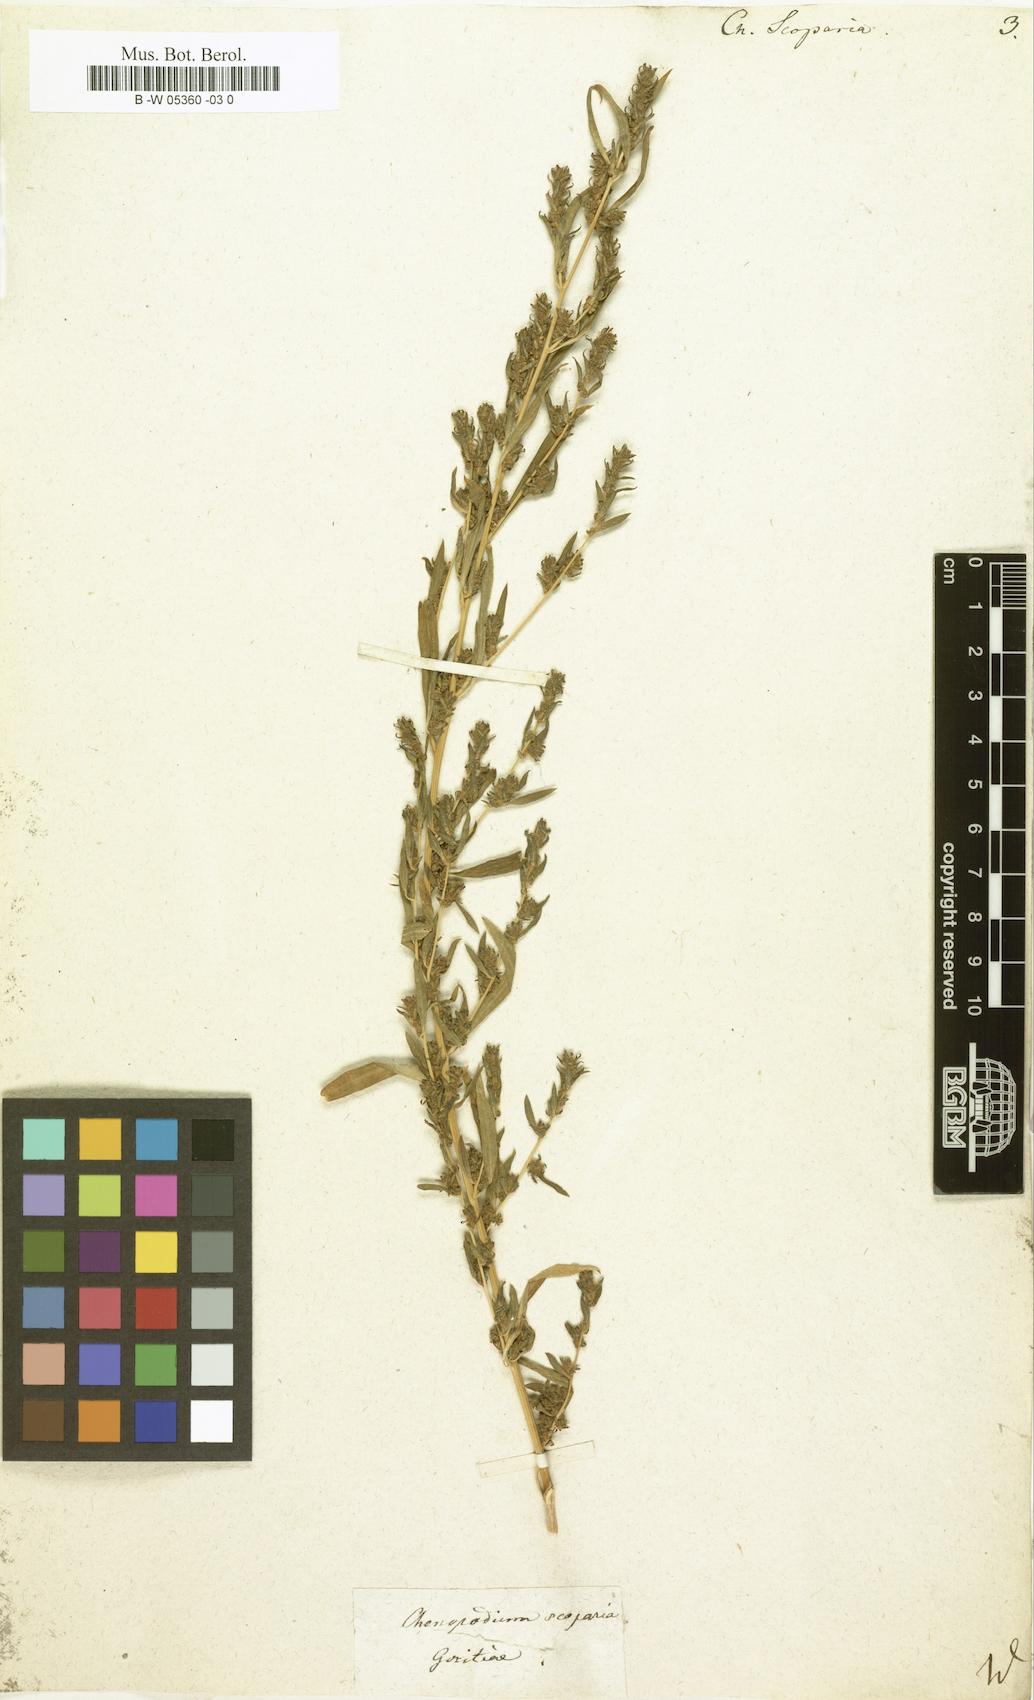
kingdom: Plantae
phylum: Tracheophyta
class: Magnoliopsida
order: Caryophyllales
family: Amaranthaceae
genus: Bassia
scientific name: Bassia scoparia
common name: Belvedere
